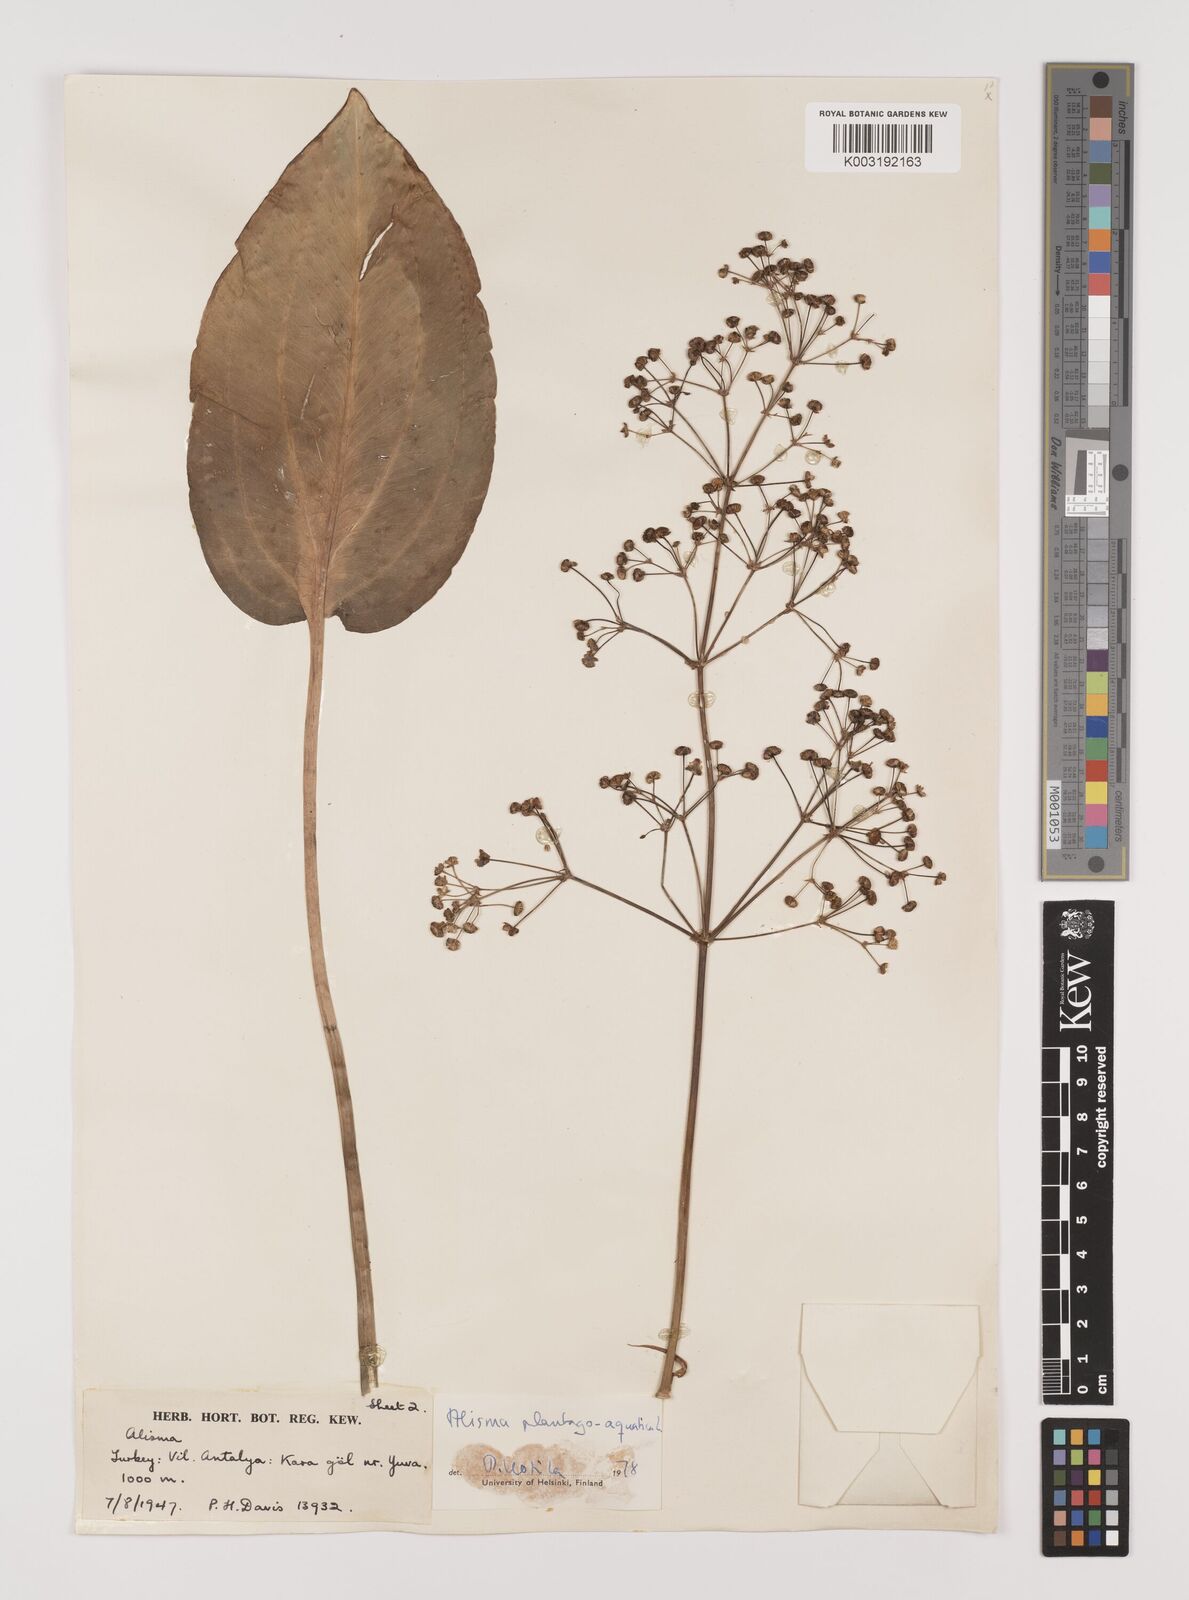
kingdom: Plantae
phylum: Tracheophyta
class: Liliopsida
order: Alismatales
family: Alismataceae
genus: Alisma
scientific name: Alisma plantago-aquatica
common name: Water-plantain
